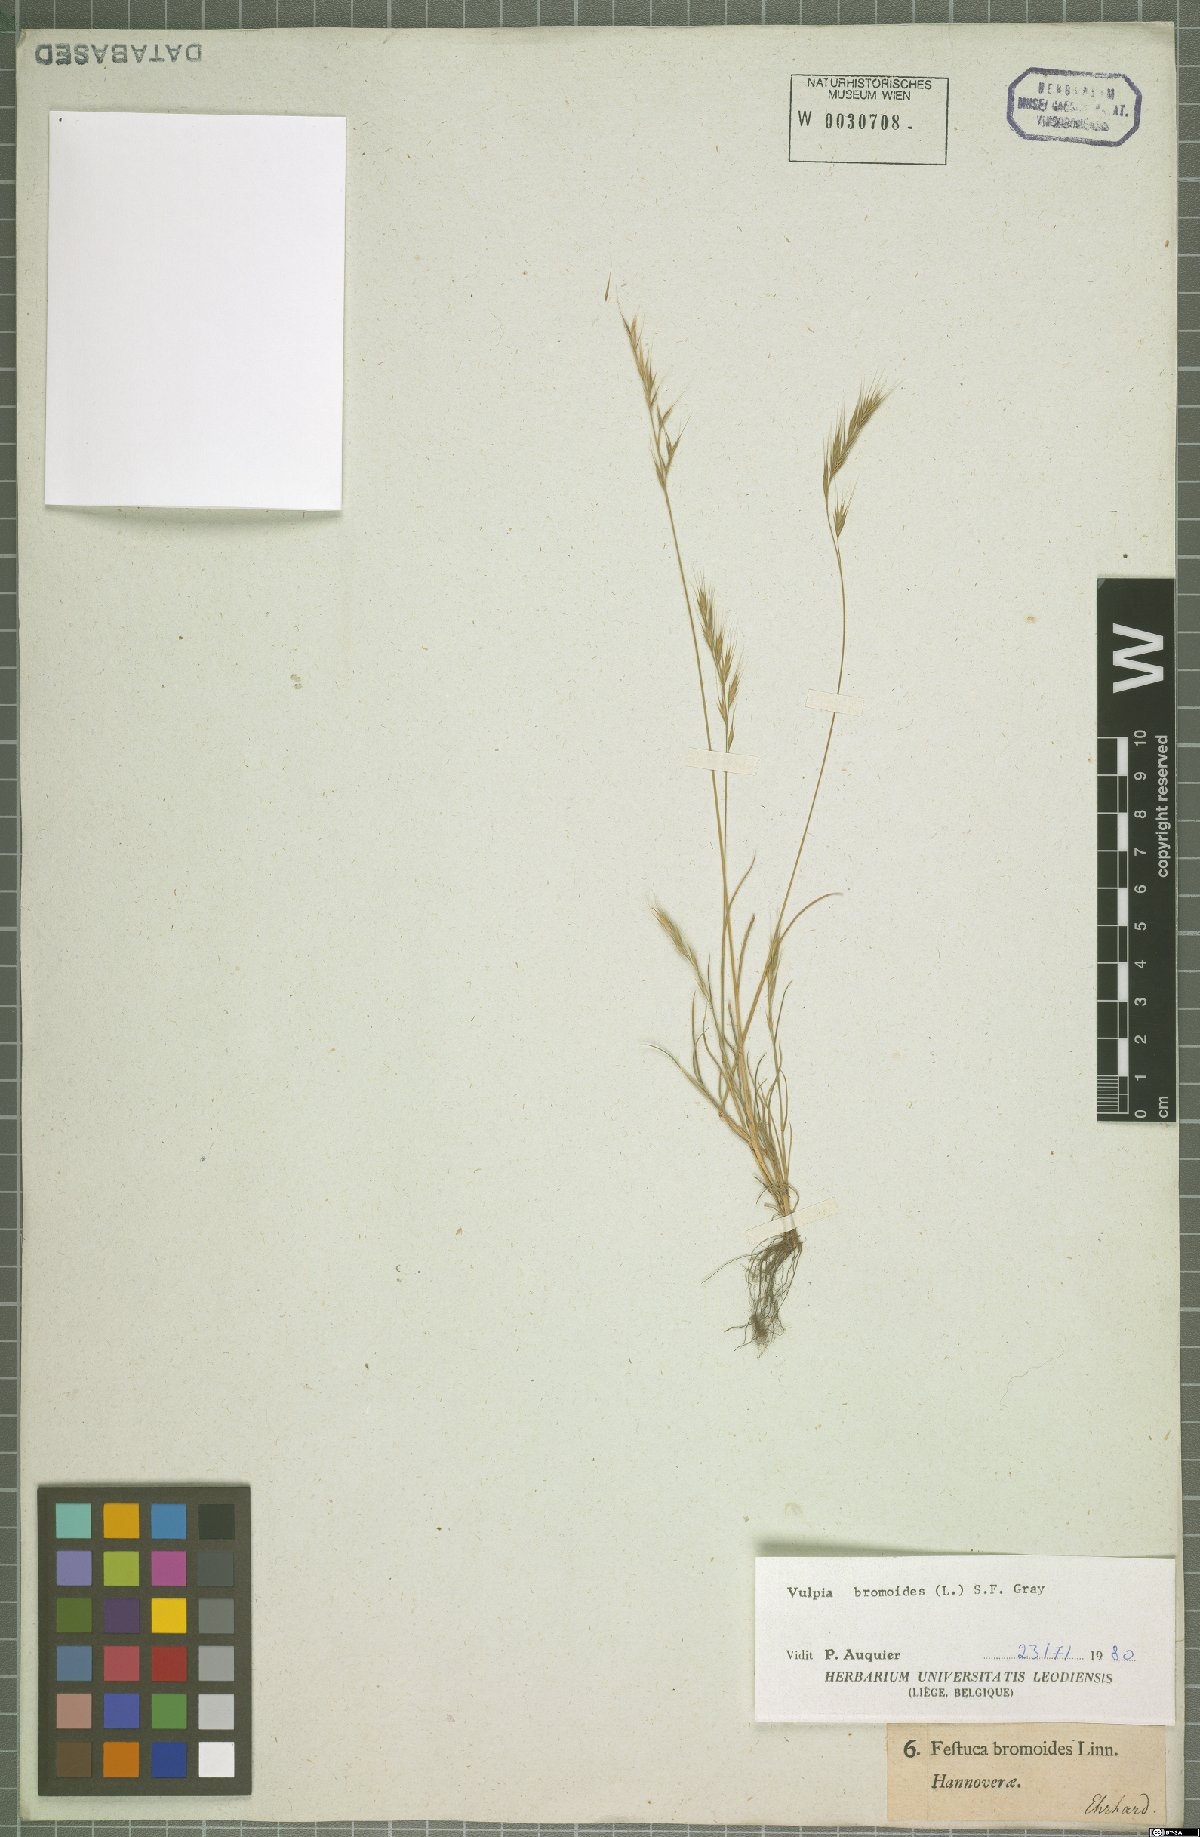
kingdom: Plantae
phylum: Tracheophyta
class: Liliopsida
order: Poales
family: Poaceae
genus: Festuca
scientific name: Festuca bromoides
